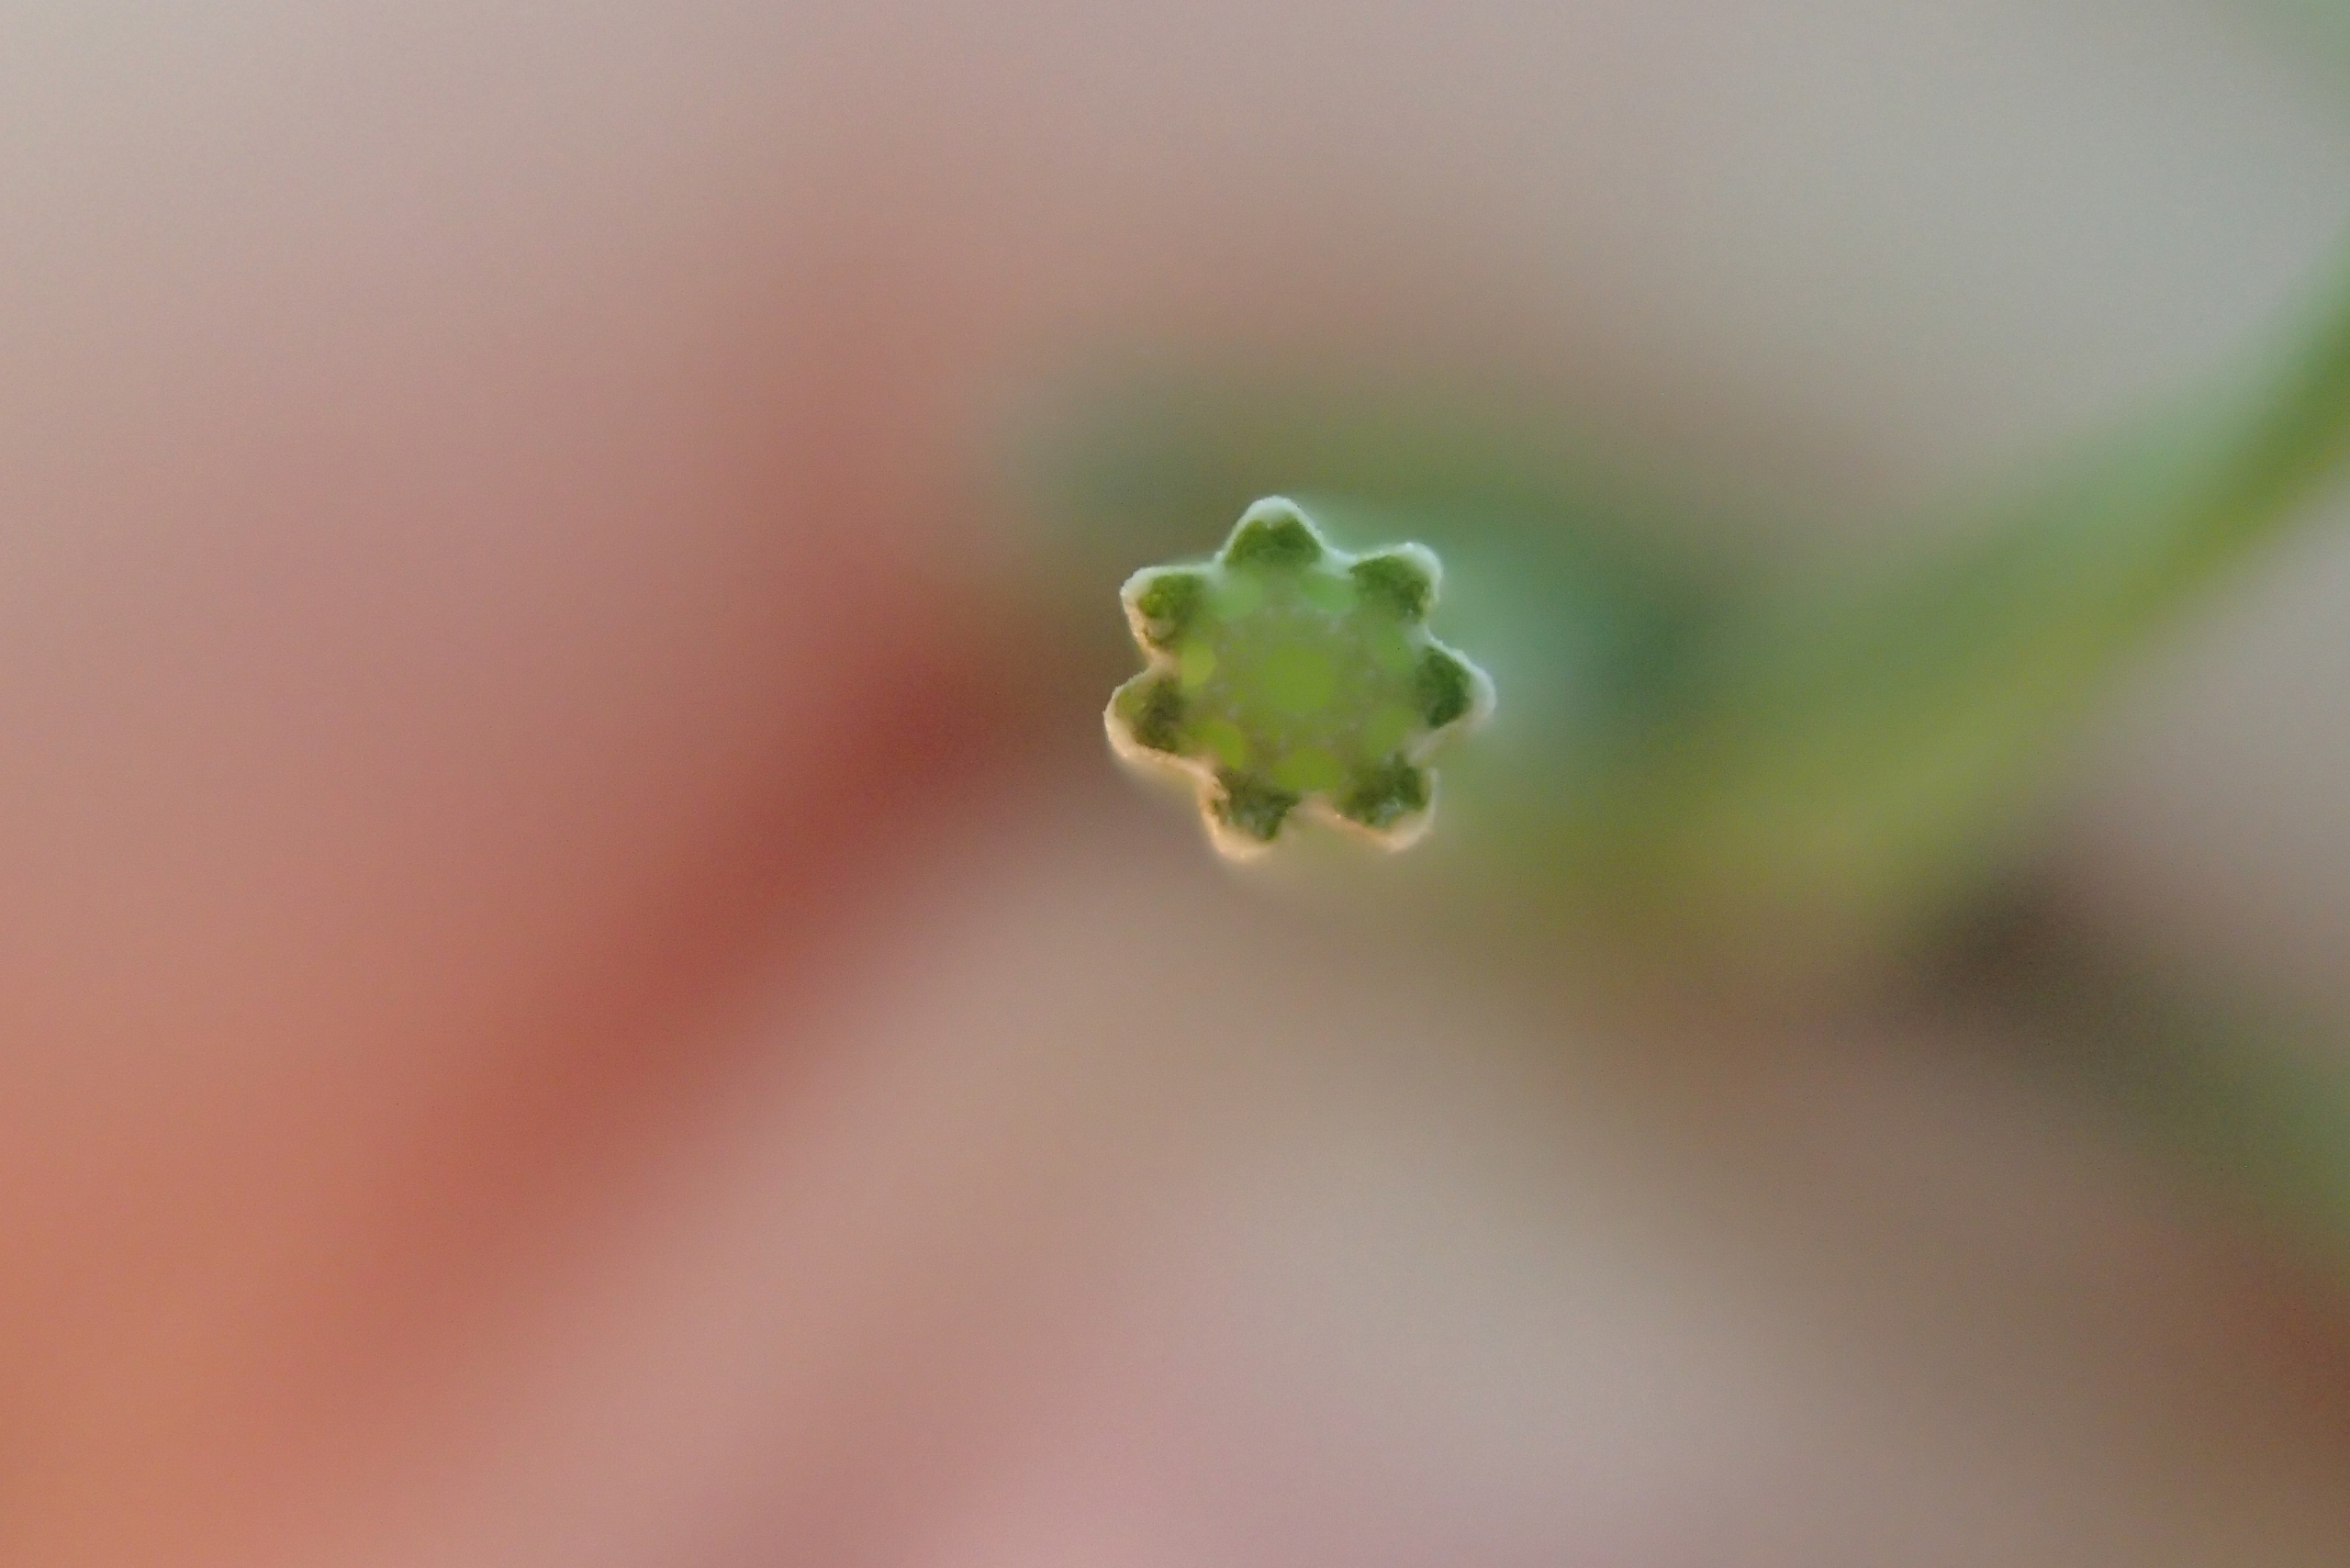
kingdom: Plantae
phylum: Tracheophyta
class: Polypodiopsida
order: Equisetales
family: Equisetaceae
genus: Equisetum
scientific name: Equisetum arvense
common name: Ager-padderok
